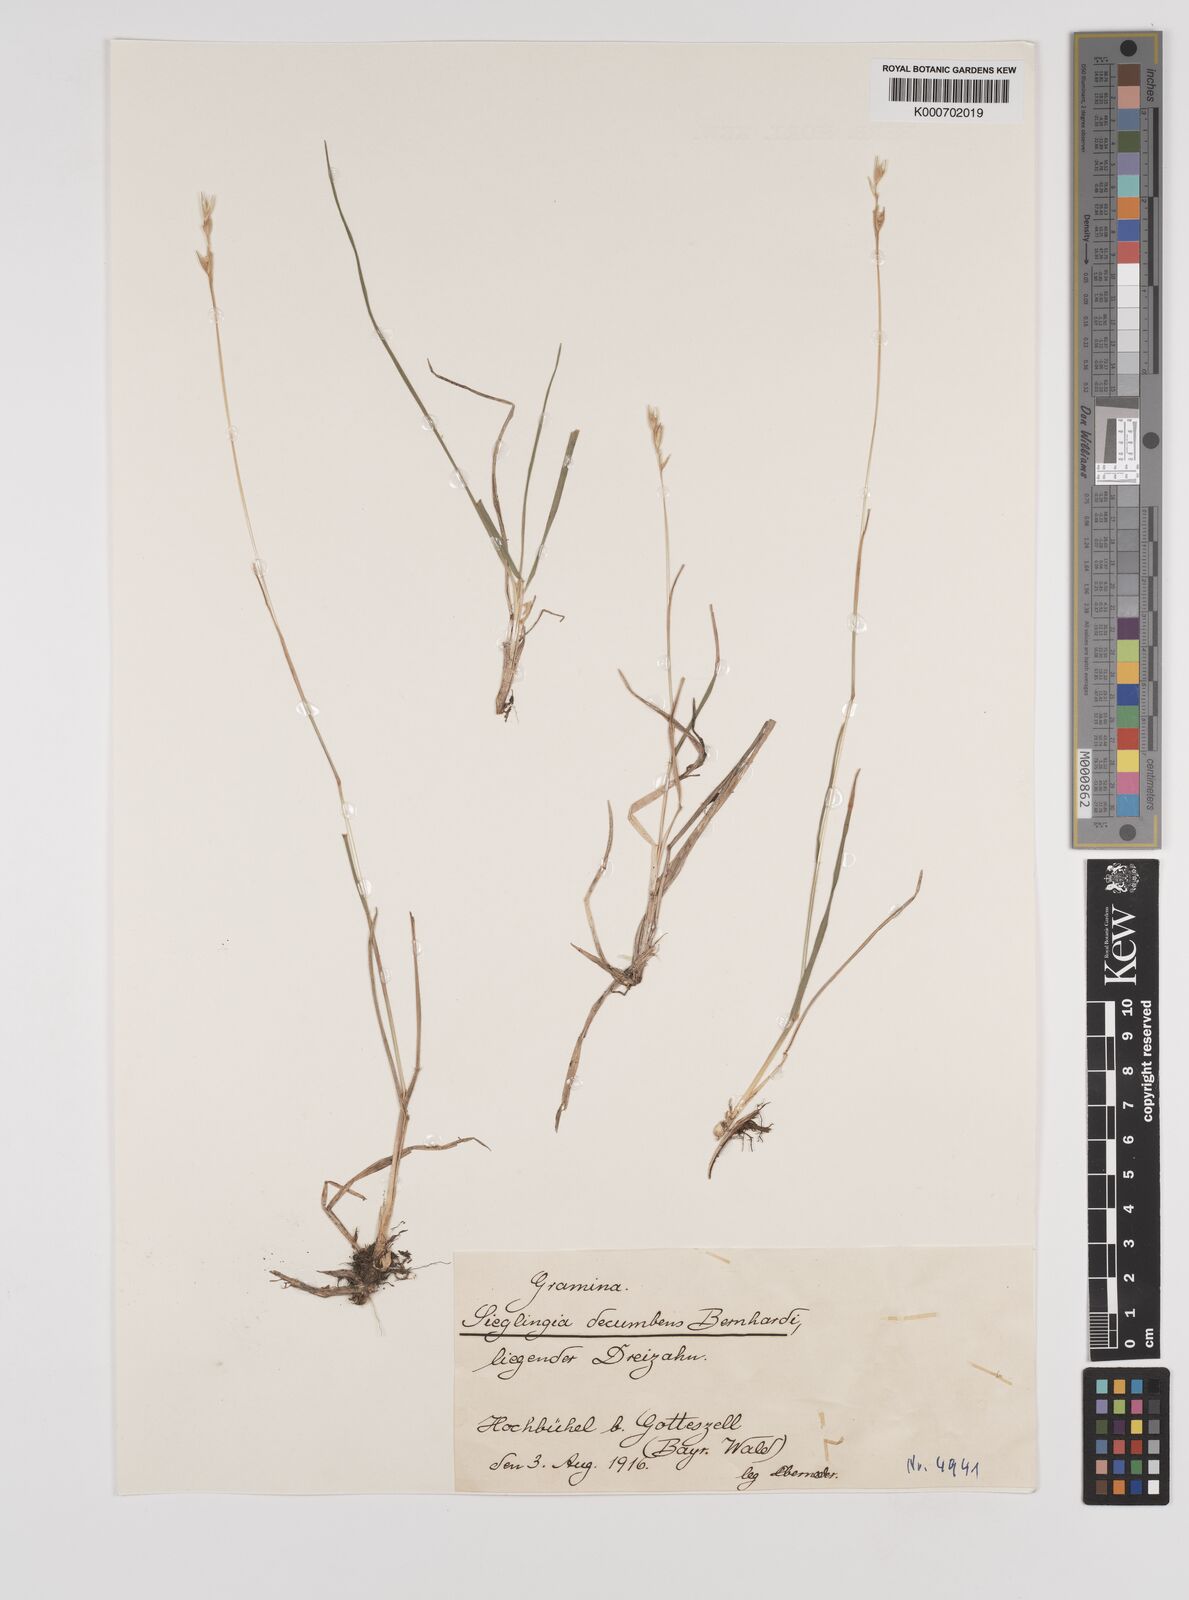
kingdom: Plantae
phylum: Tracheophyta
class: Liliopsida
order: Poales
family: Poaceae
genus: Danthonia
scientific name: Danthonia decumbens
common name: Common heathgrass
